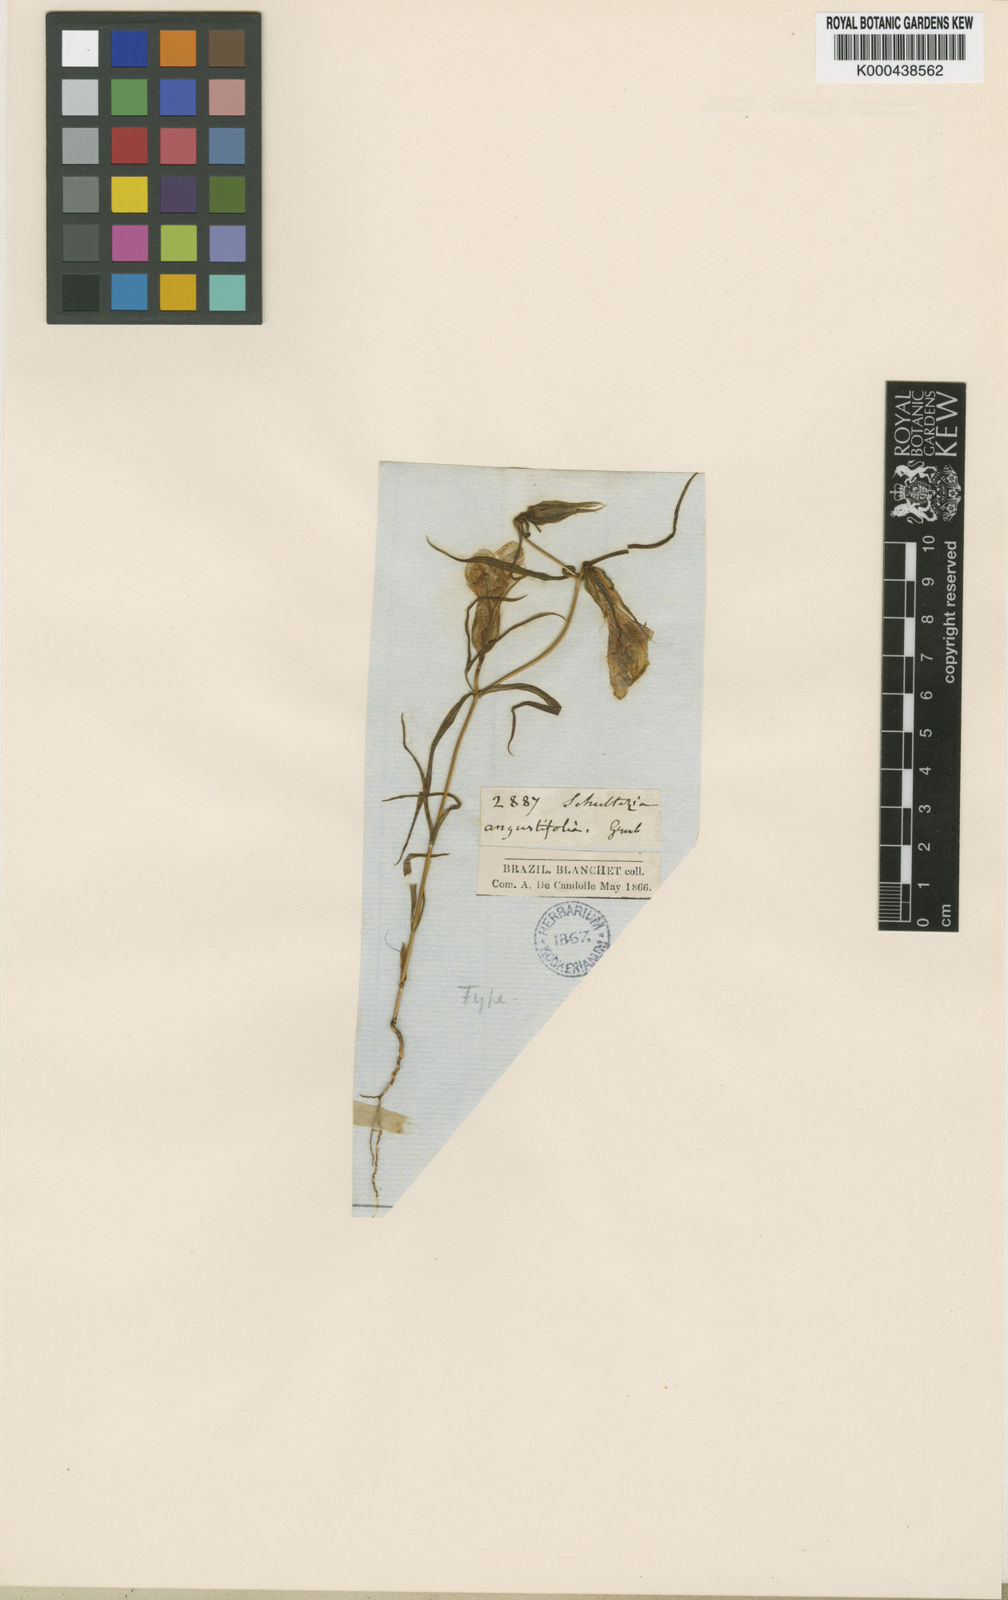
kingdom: Plantae
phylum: Tracheophyta
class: Magnoliopsida
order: Gentianales
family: Gentianaceae
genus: Schultesia
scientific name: Schultesia angustifolia
